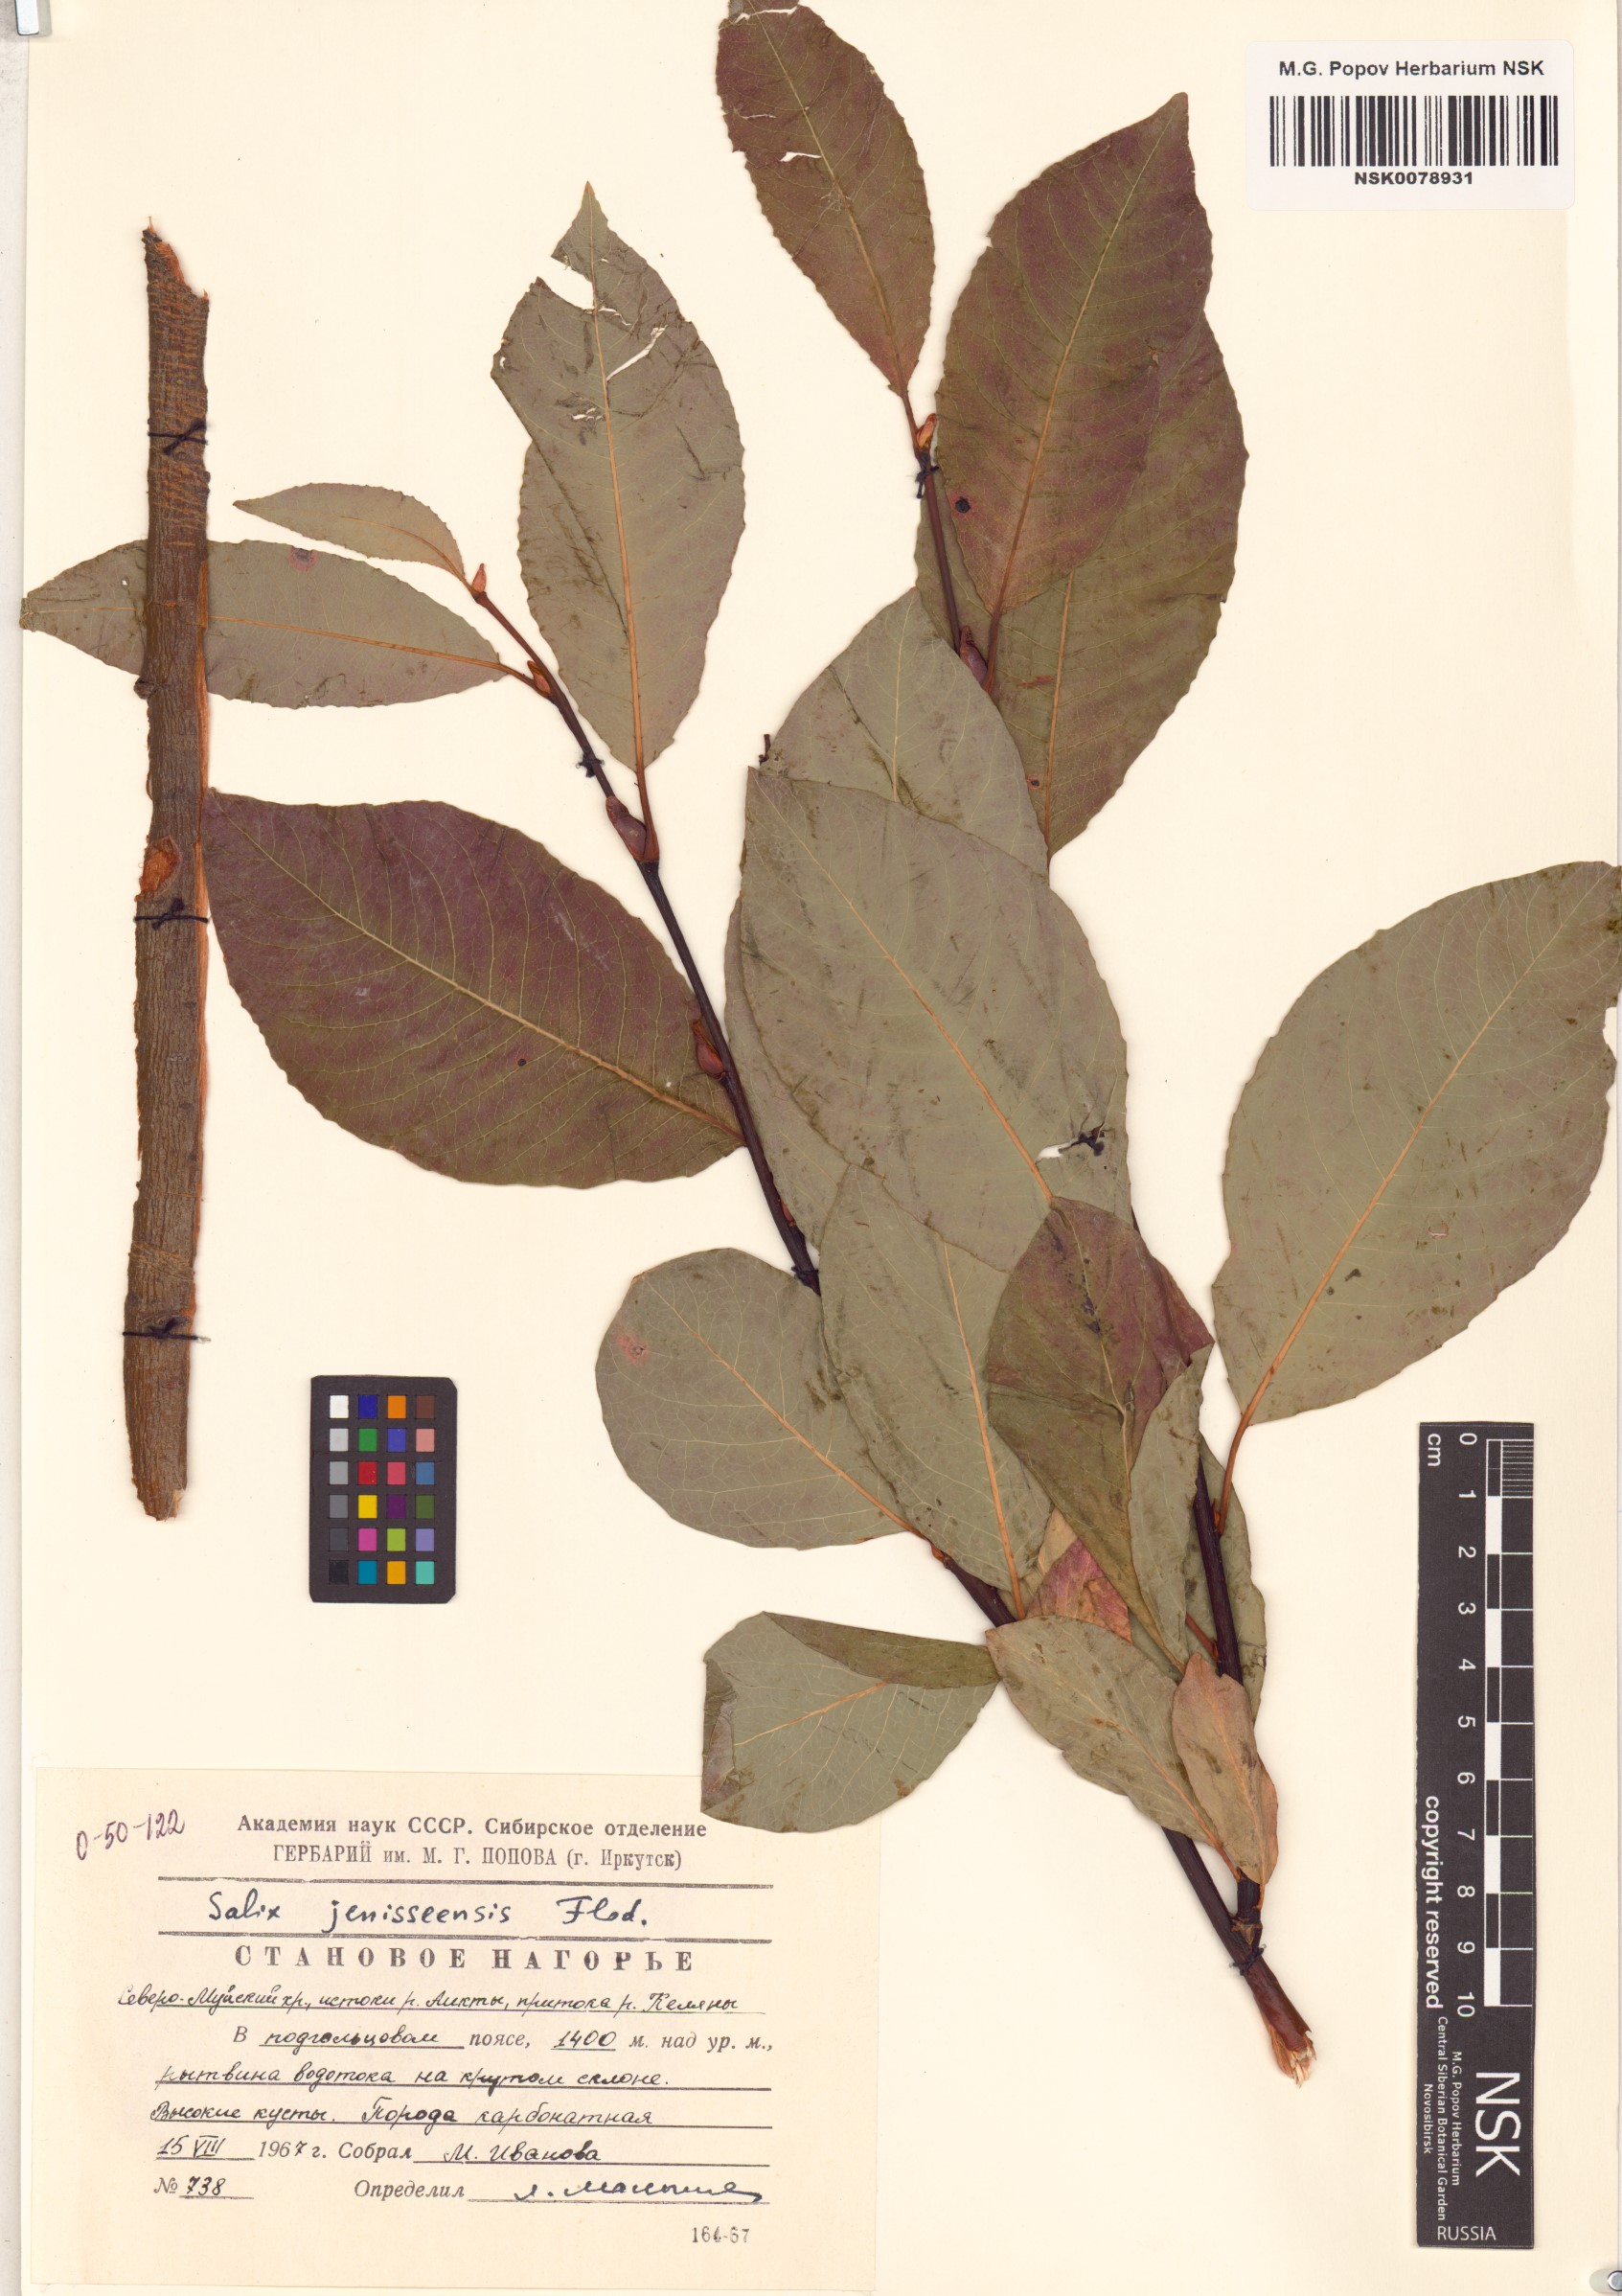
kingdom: Plantae
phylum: Tracheophyta
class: Magnoliopsida
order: Malpighiales
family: Salicaceae
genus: Salix
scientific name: Salix jenisseensis
